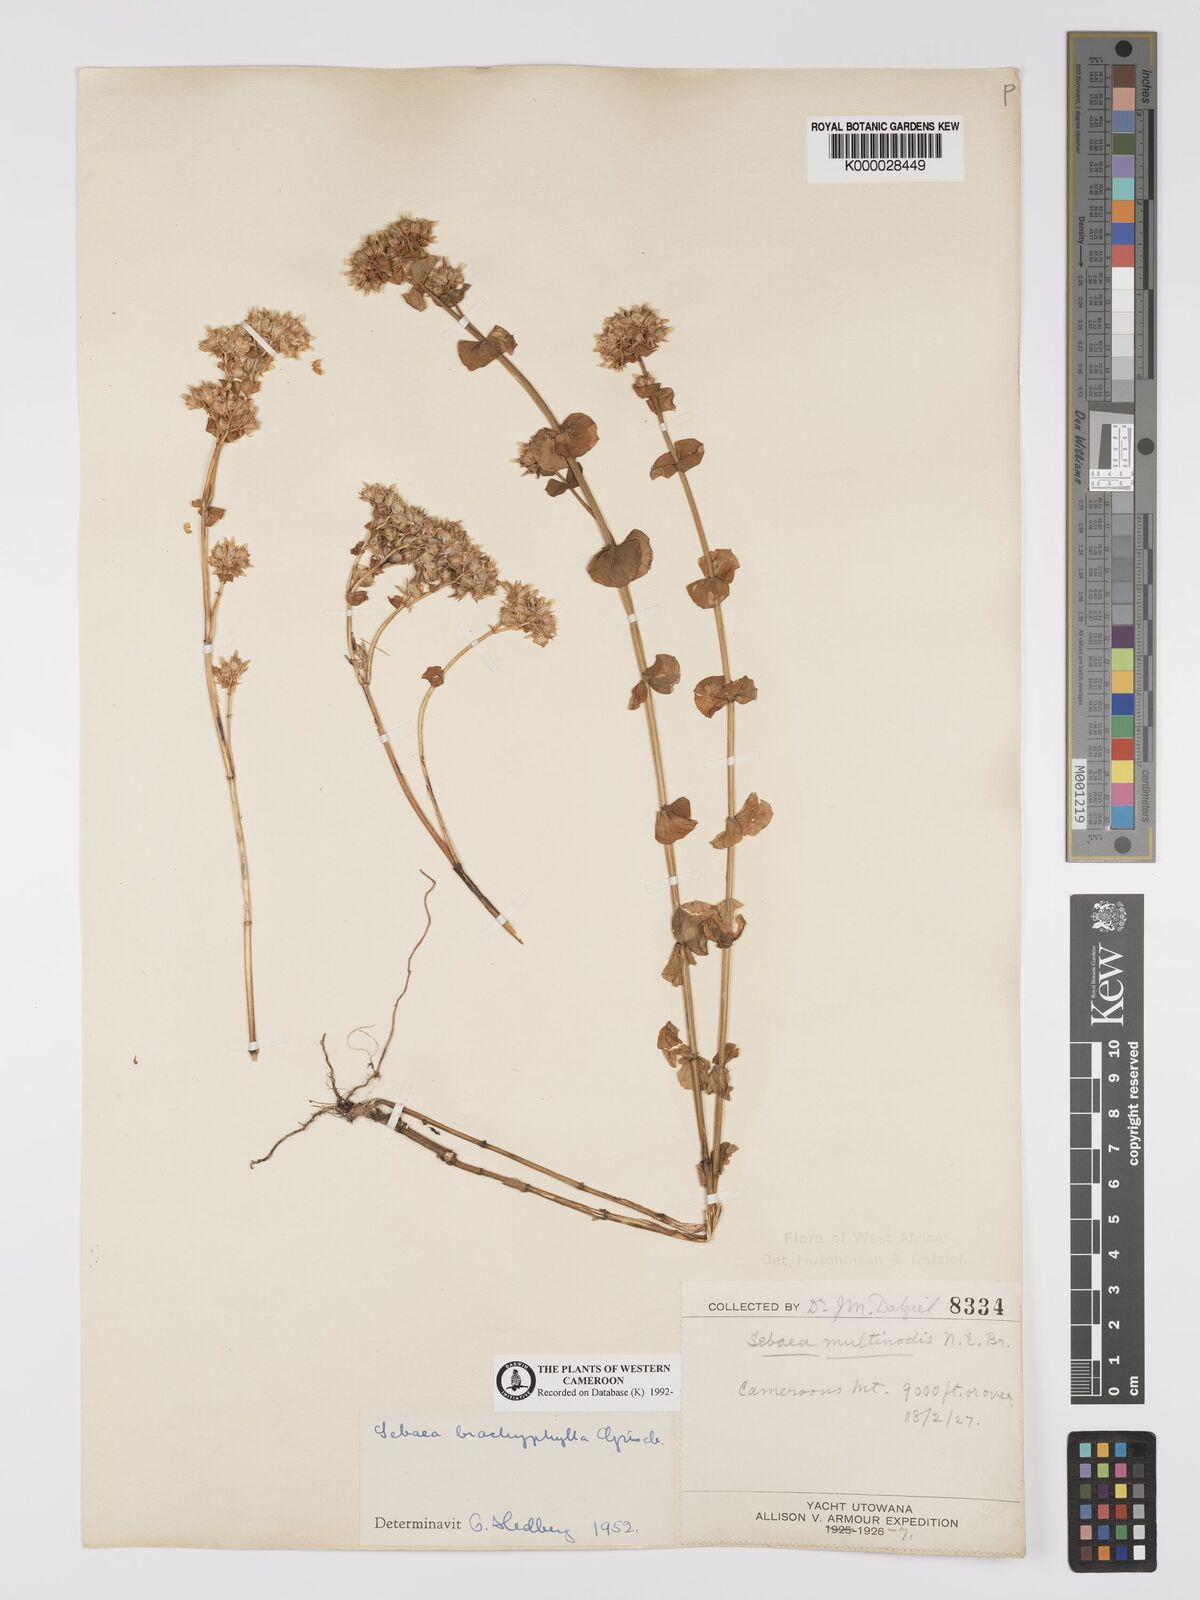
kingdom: Plantae
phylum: Tracheophyta
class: Magnoliopsida
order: Gentianales
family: Gentianaceae
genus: Sebaea
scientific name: Sebaea brachyphylla
